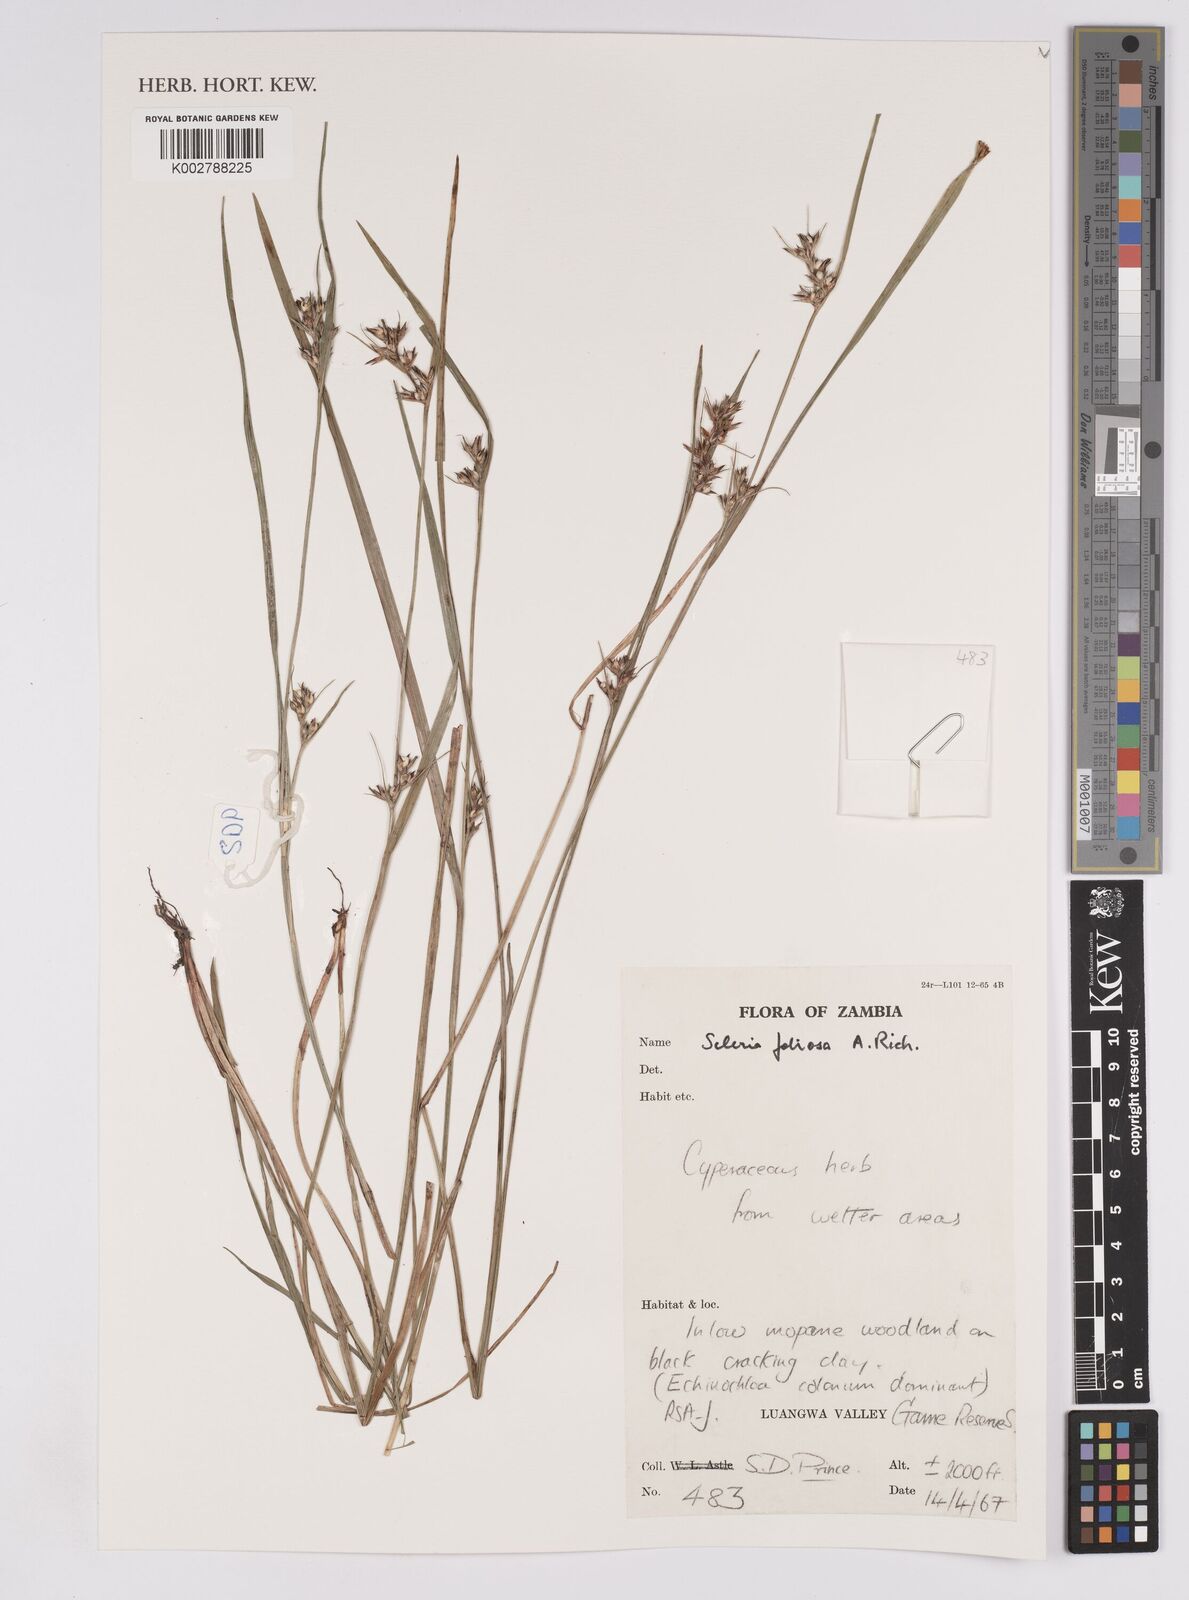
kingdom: Plantae
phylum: Tracheophyta
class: Liliopsida
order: Poales
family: Cyperaceae
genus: Scleria
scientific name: Scleria foliosa
